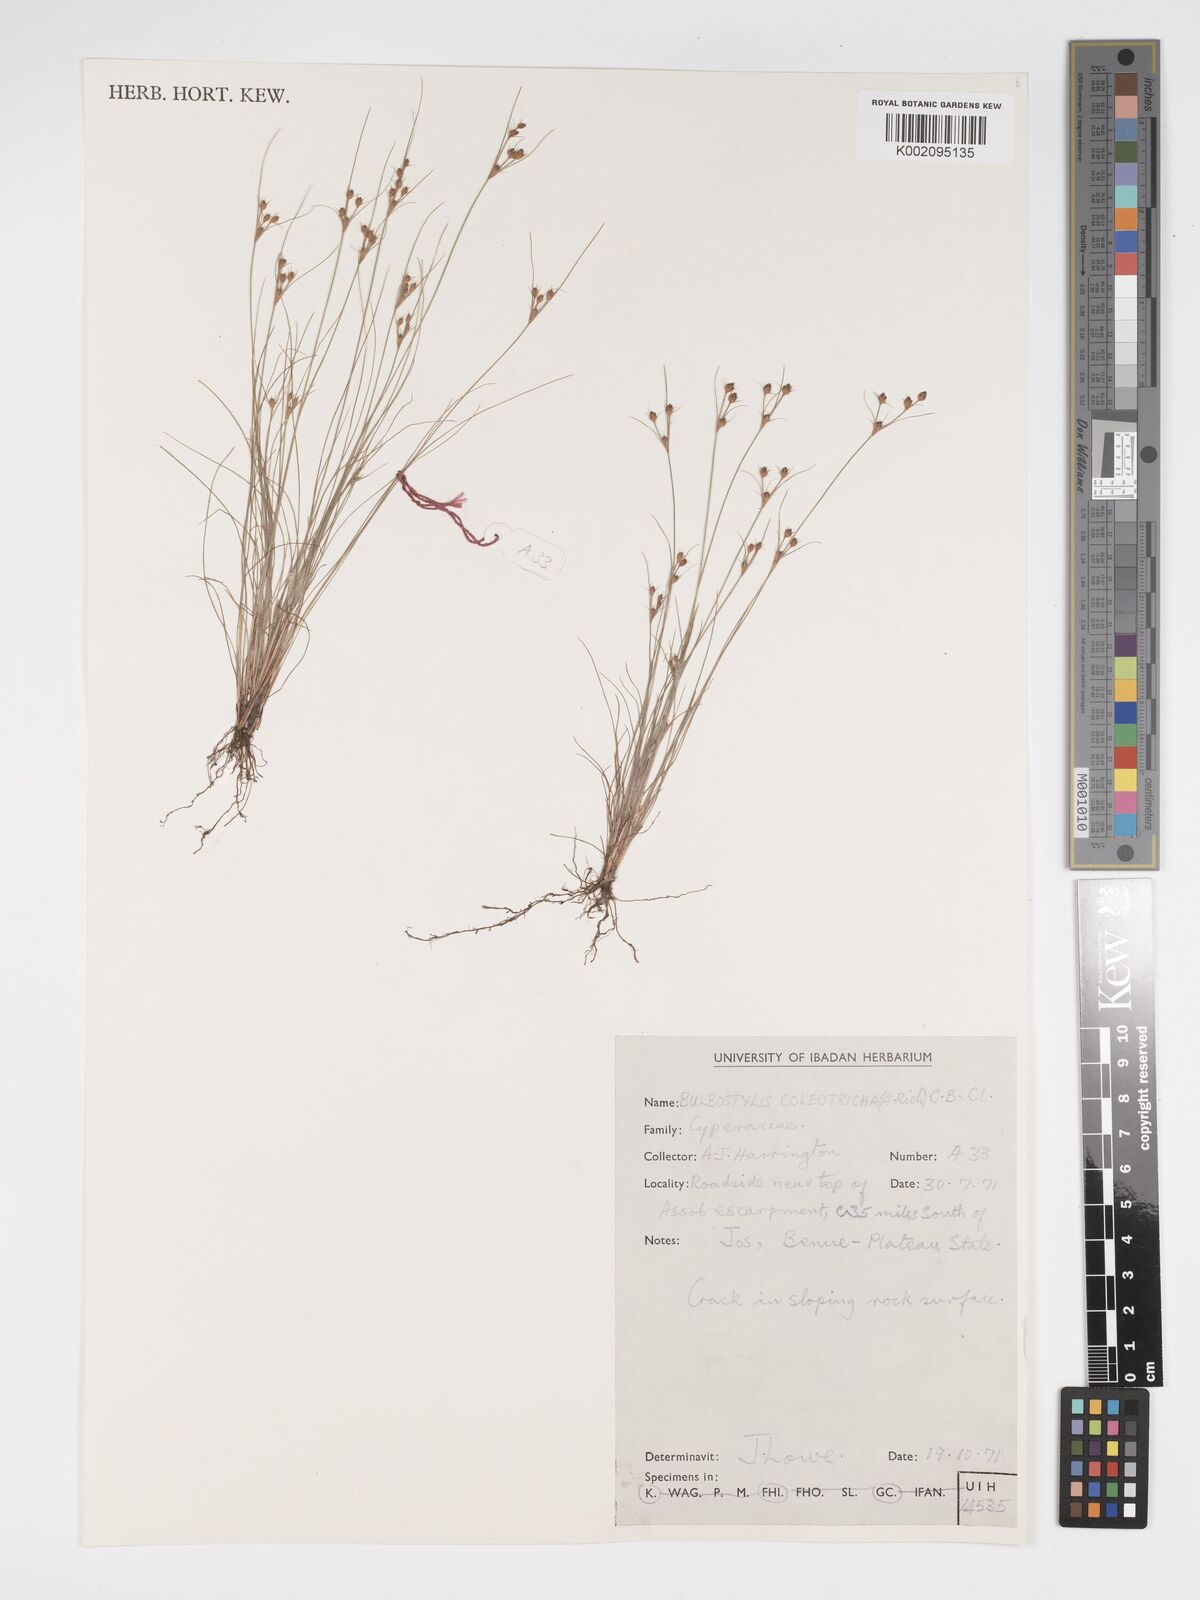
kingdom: Plantae
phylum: Tracheophyta
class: Liliopsida
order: Poales
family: Cyperaceae
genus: Bulbostylis
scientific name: Bulbostylis coleotricha
